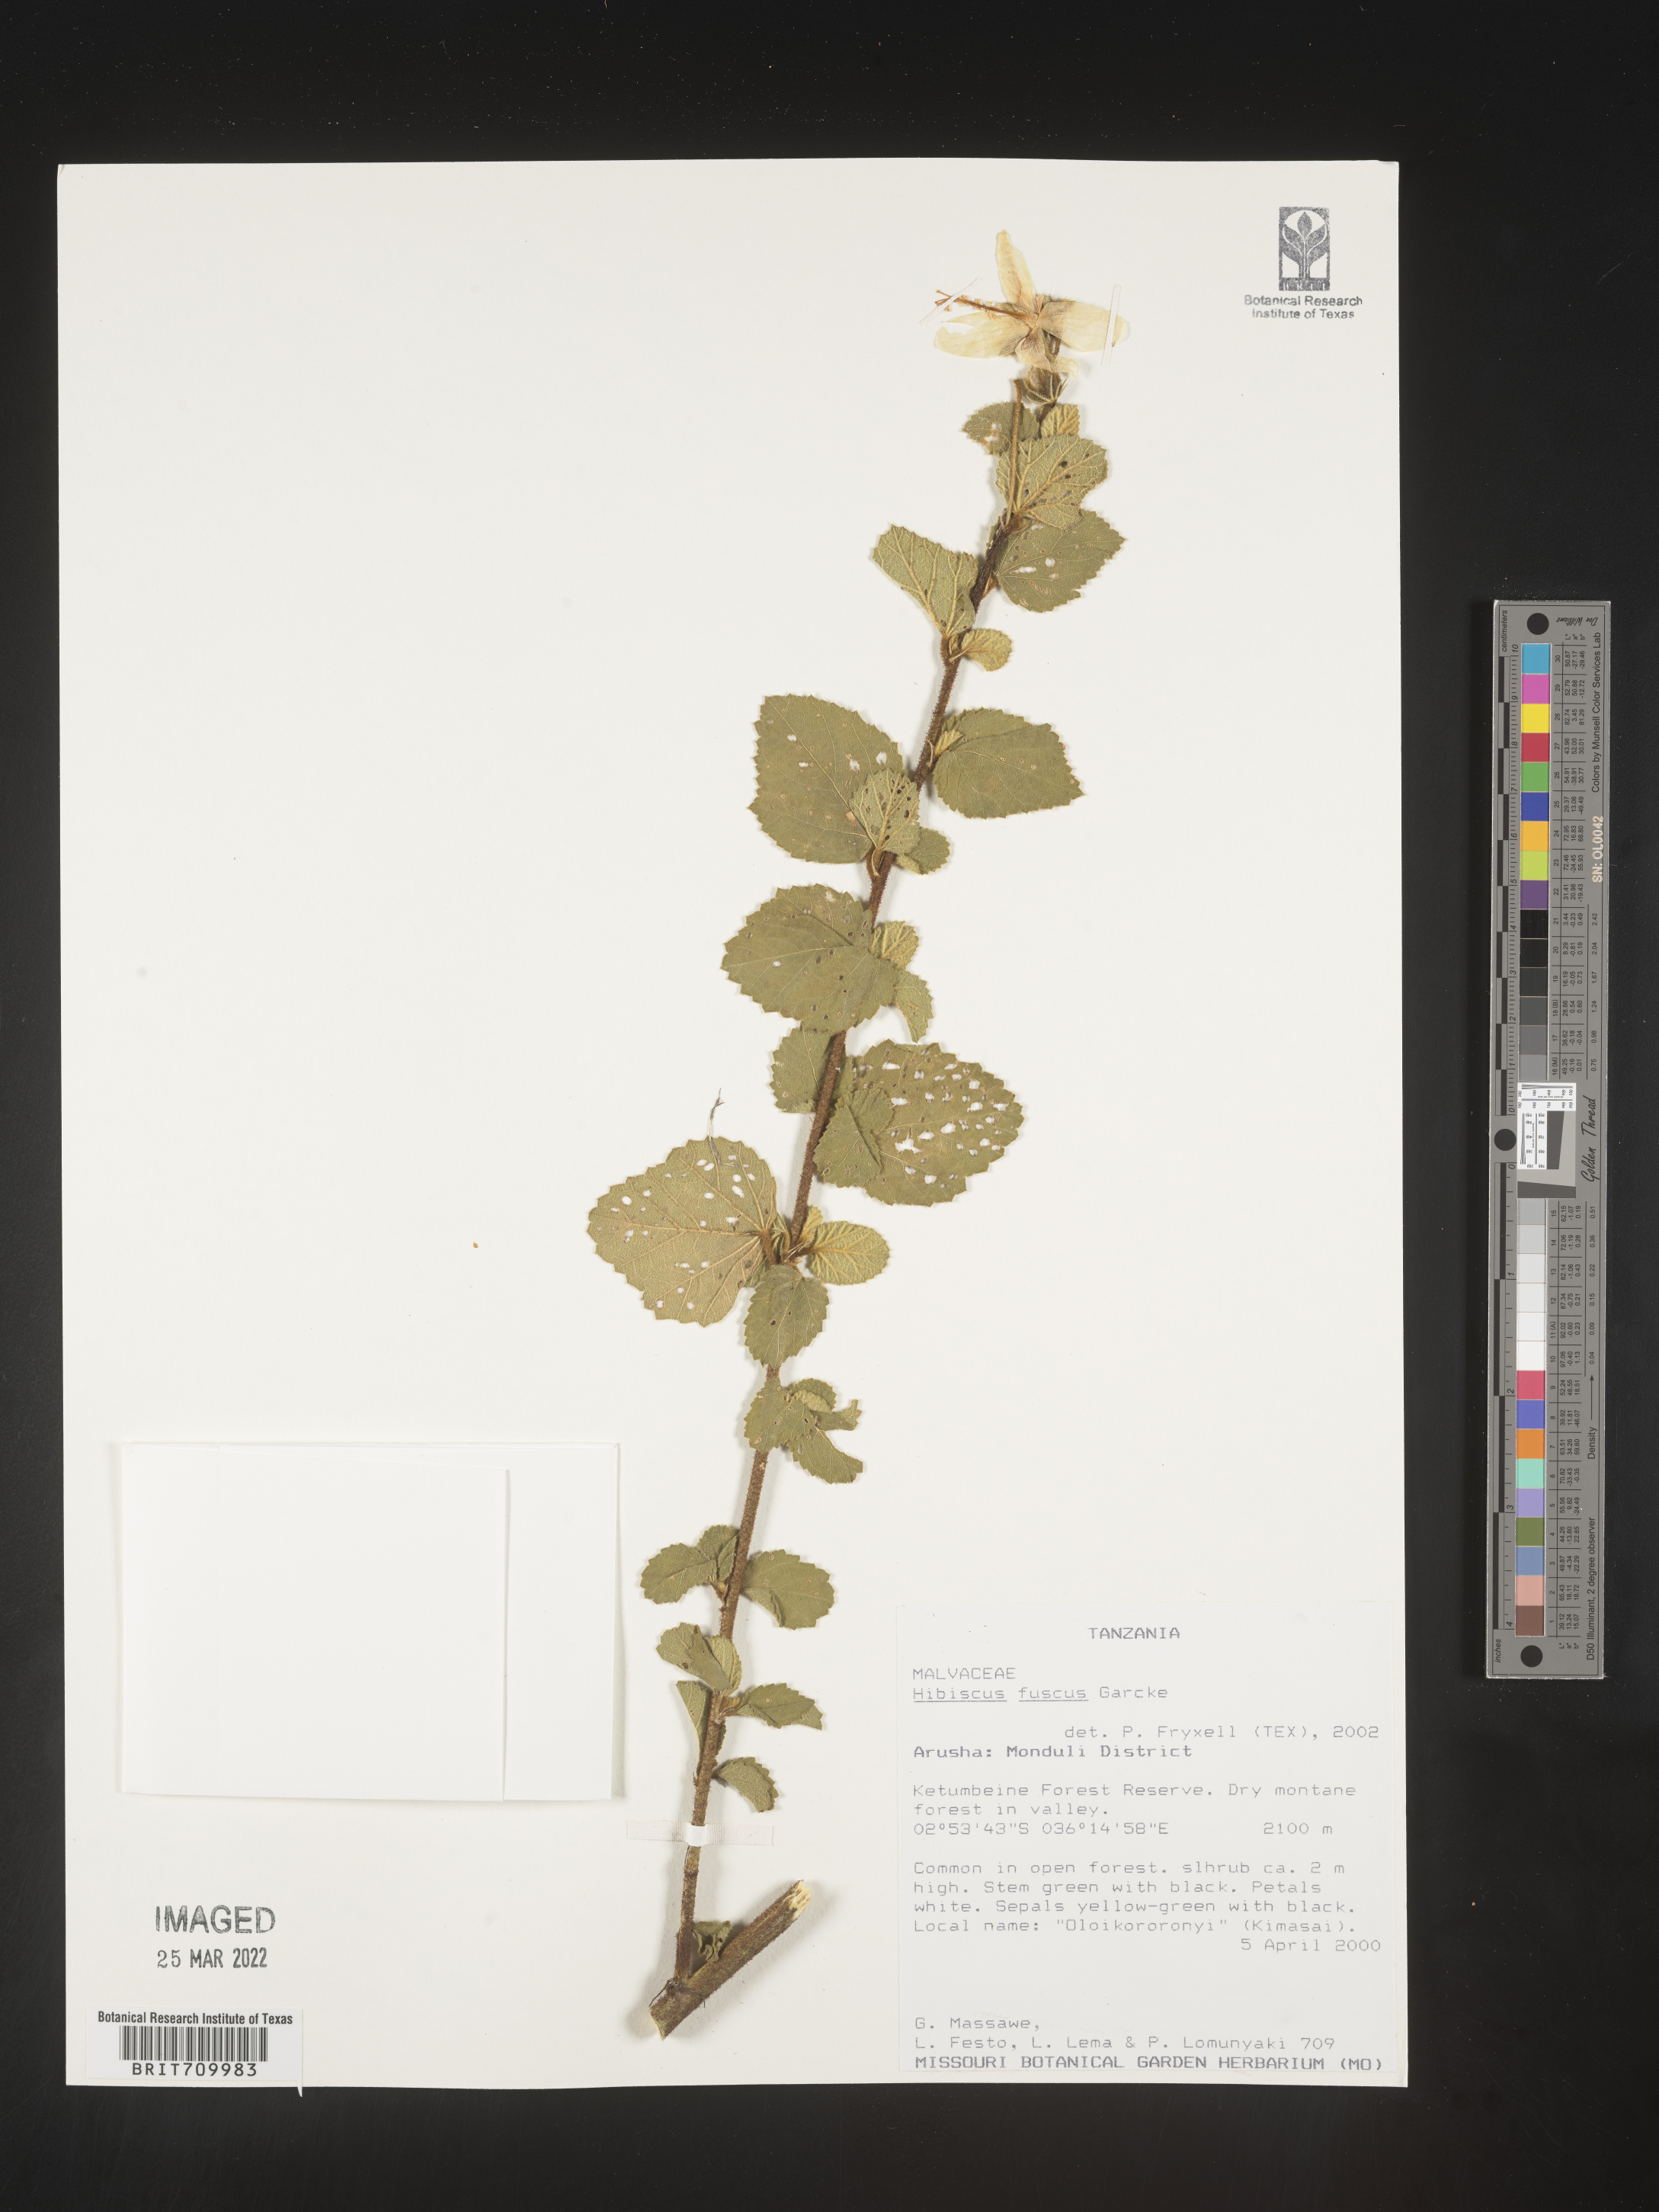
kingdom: Plantae
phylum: Tracheophyta
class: Magnoliopsida
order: Malvales
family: Malvaceae
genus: Hibiscus
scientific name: Hibiscus
